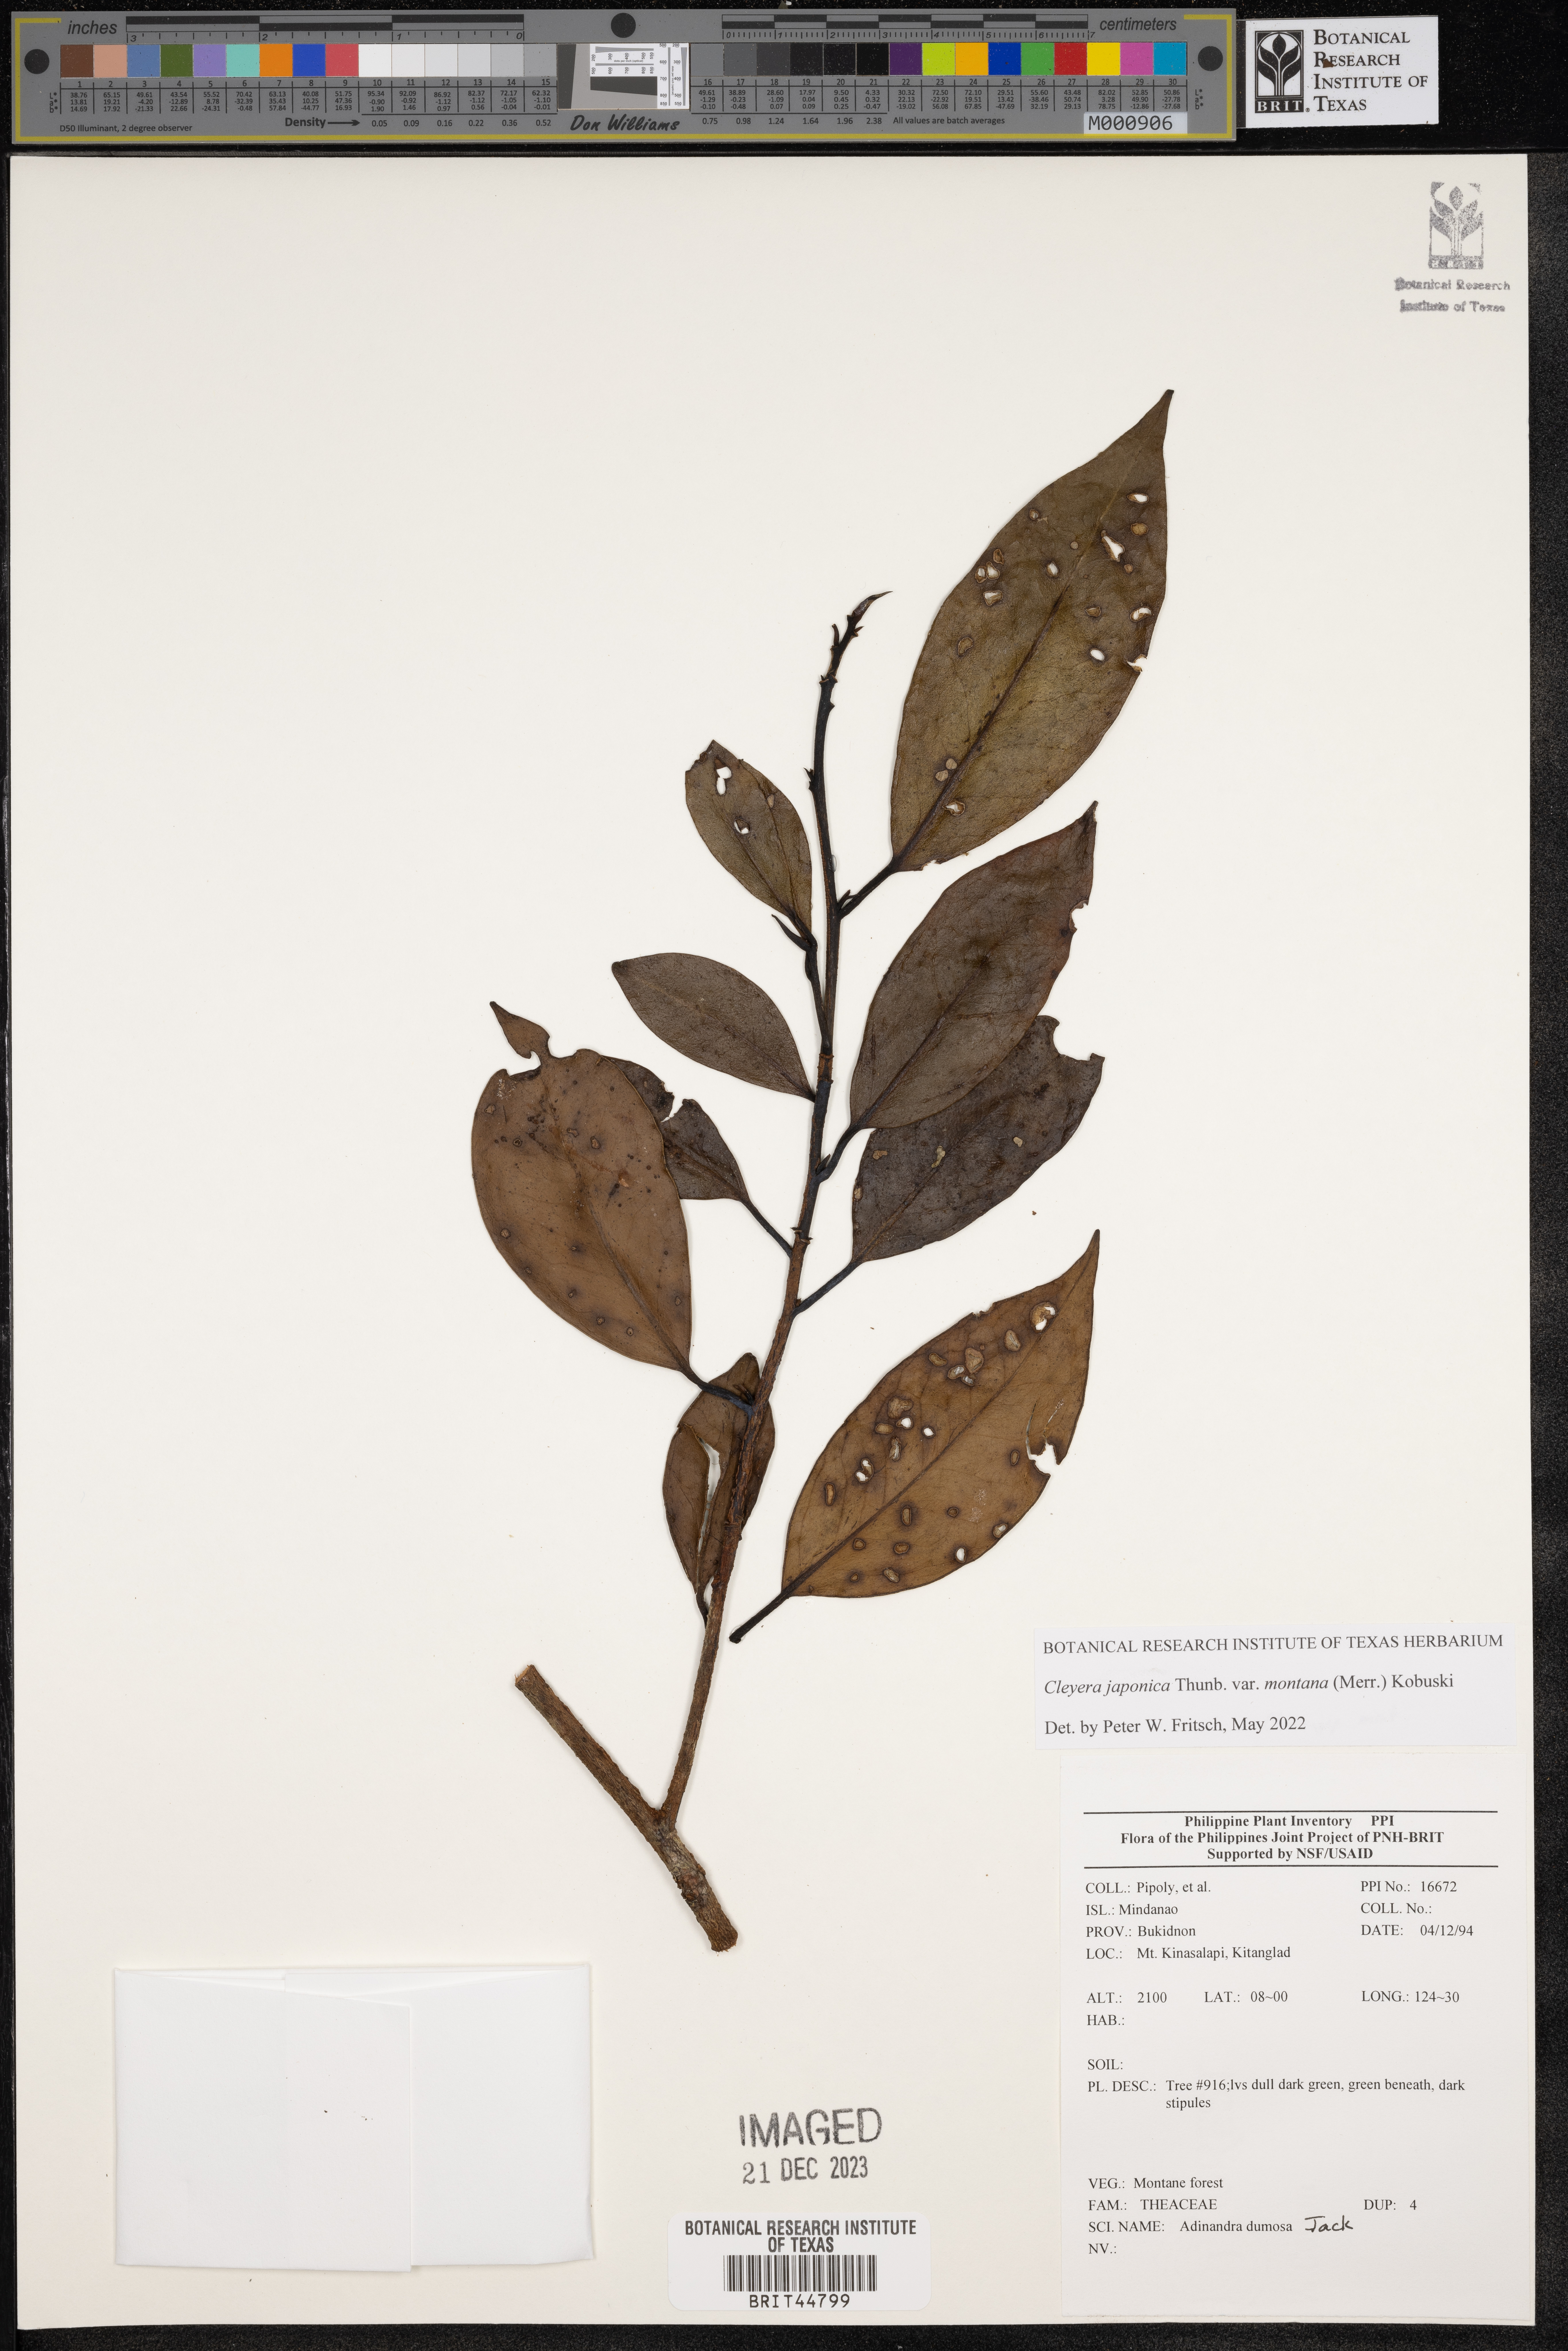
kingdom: Plantae
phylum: Tracheophyta
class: Magnoliopsida
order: Ericales
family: Pentaphylacaceae
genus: Adinandra
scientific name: Adinandra dumosa
